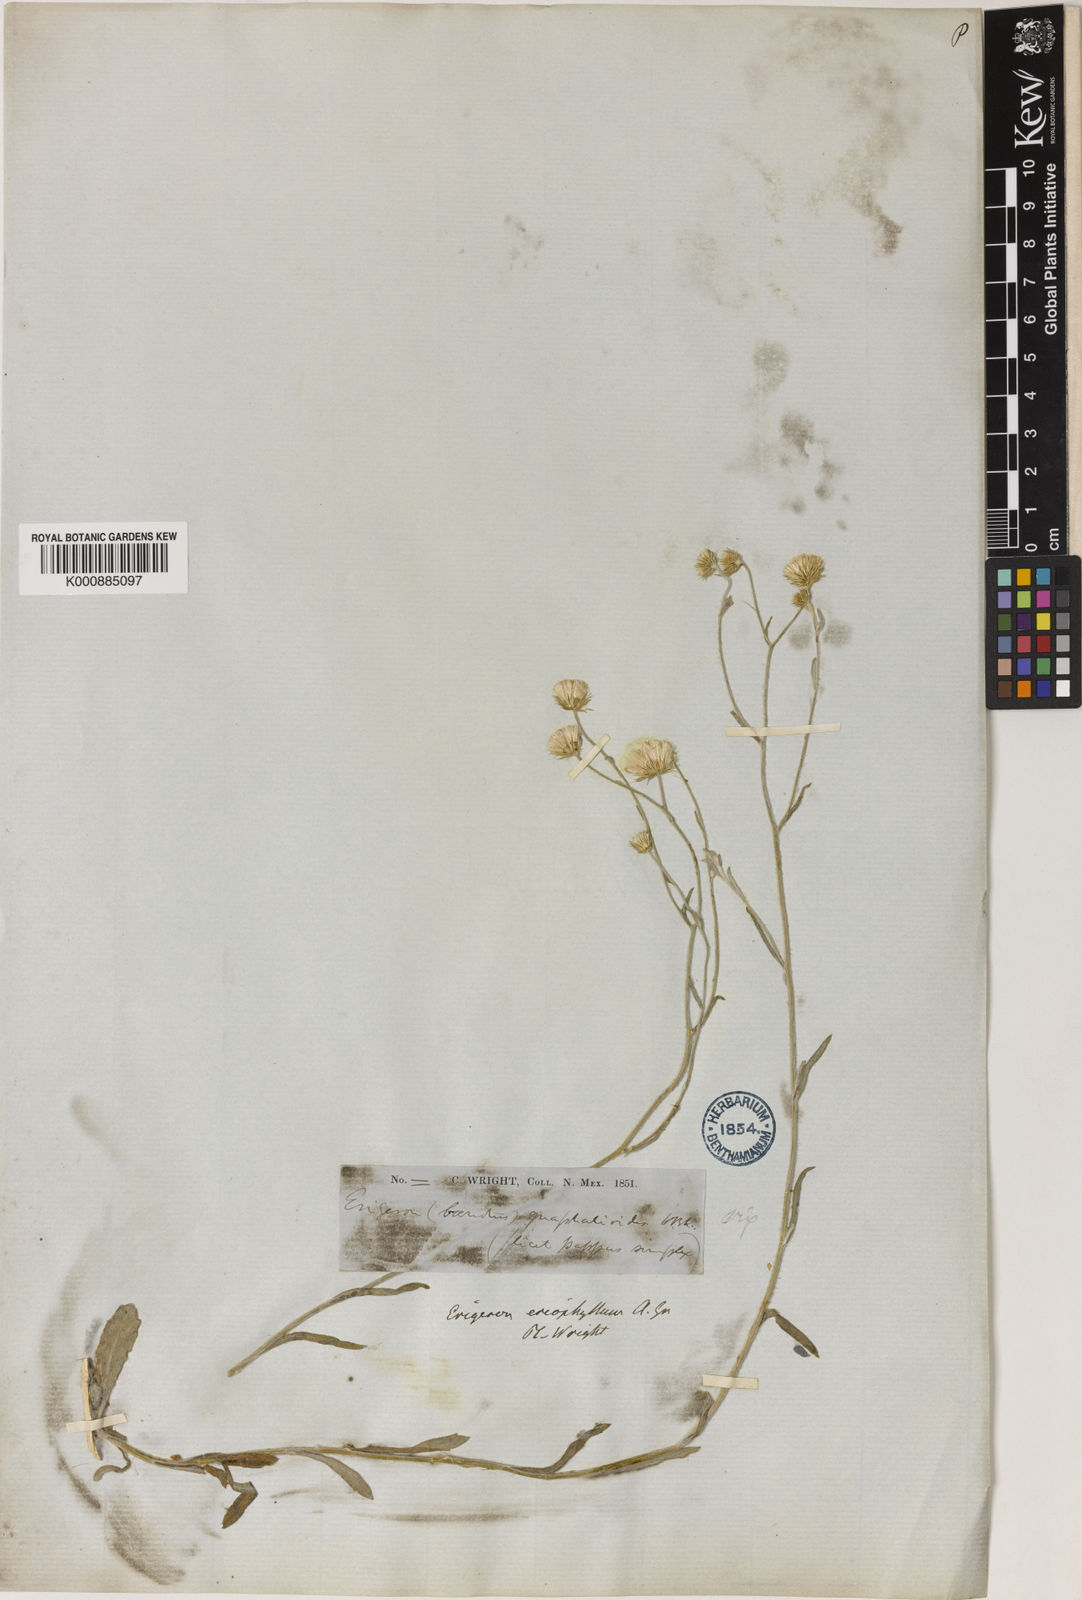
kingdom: Plantae
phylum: Tracheophyta
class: Magnoliopsida
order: Asterales
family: Asteraceae
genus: Erigeron
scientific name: Erigeron
